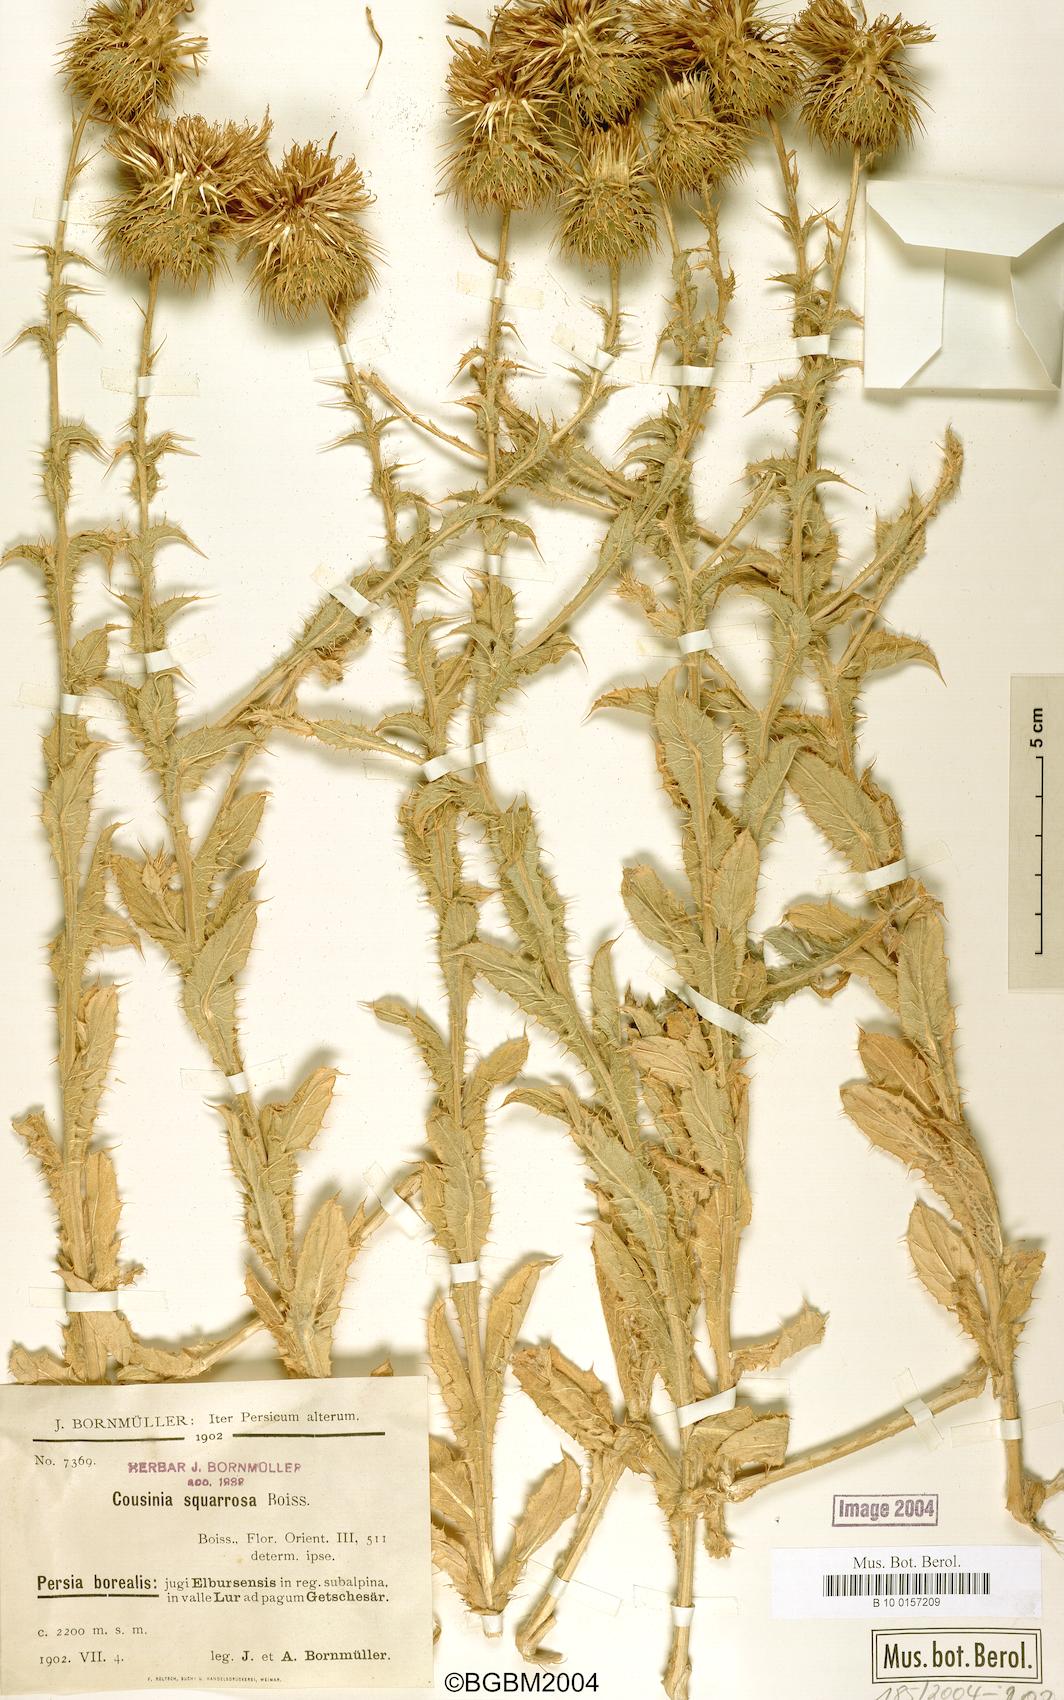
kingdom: Plantae
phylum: Tracheophyta
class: Magnoliopsida
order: Asterales
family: Asteraceae
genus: Cousinia
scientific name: Cousinia calocephala
